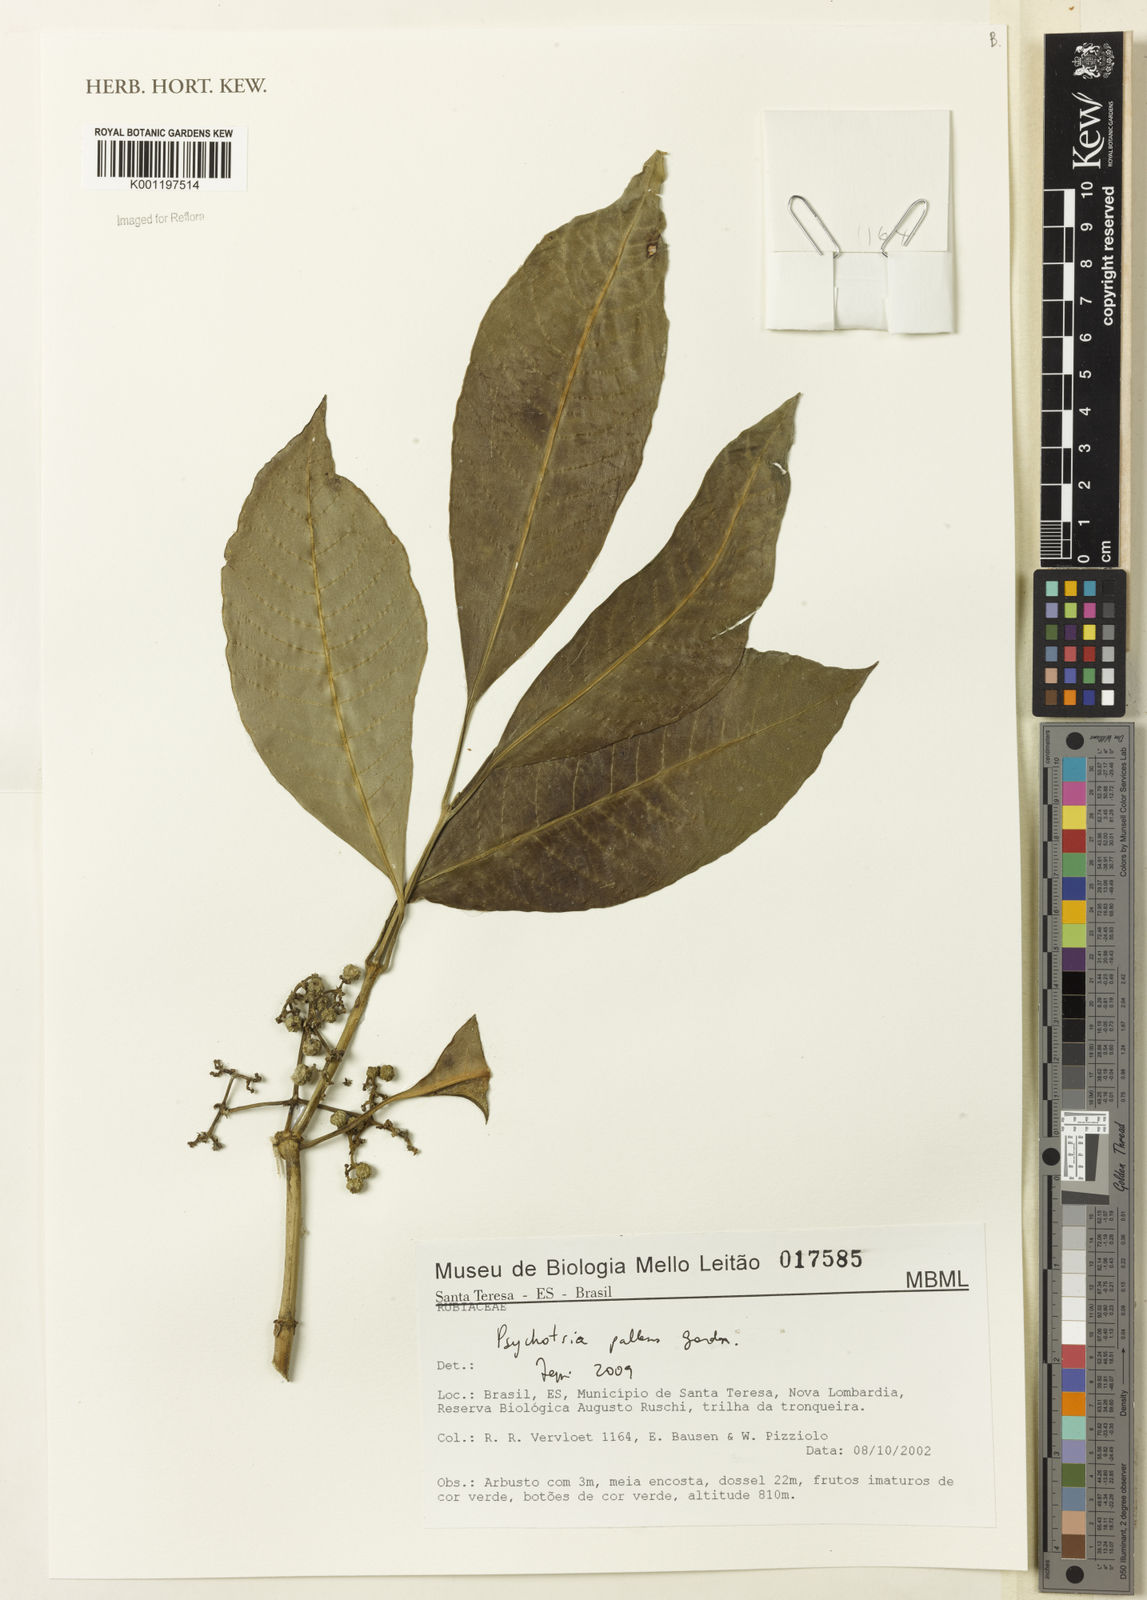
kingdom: Plantae
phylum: Tracheophyta
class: Magnoliopsida
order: Gentianales
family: Rubiaceae
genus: Psychotria
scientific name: Psychotria pallens
